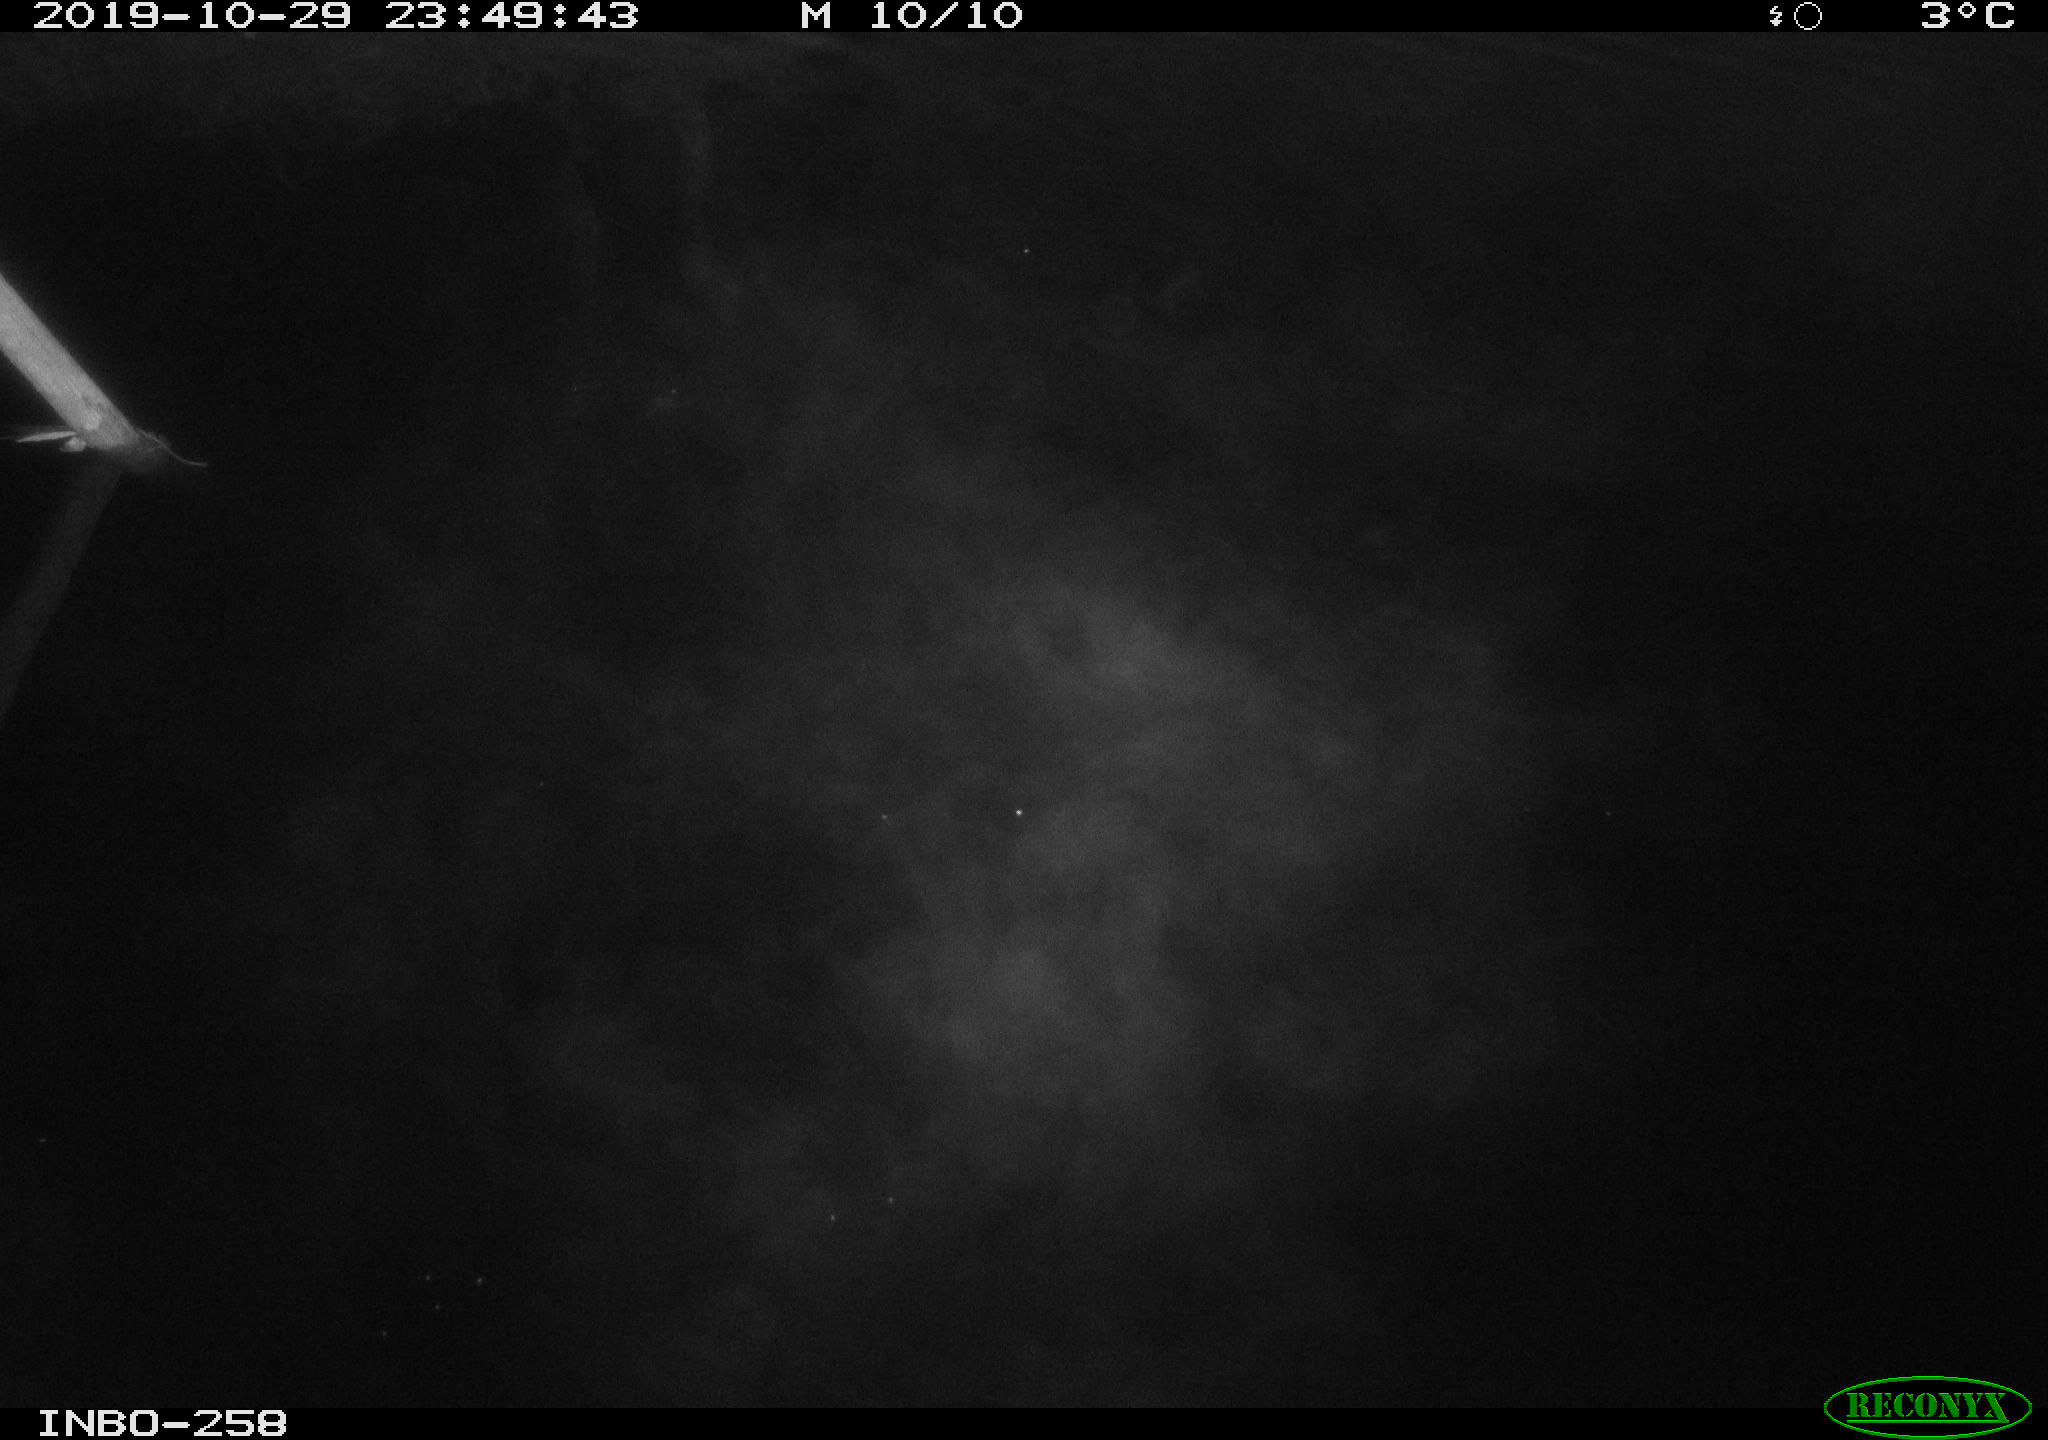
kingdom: Animalia
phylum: Chordata
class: Aves
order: Anseriformes
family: Anatidae
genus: Anas
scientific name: Anas platyrhynchos
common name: Mallard
